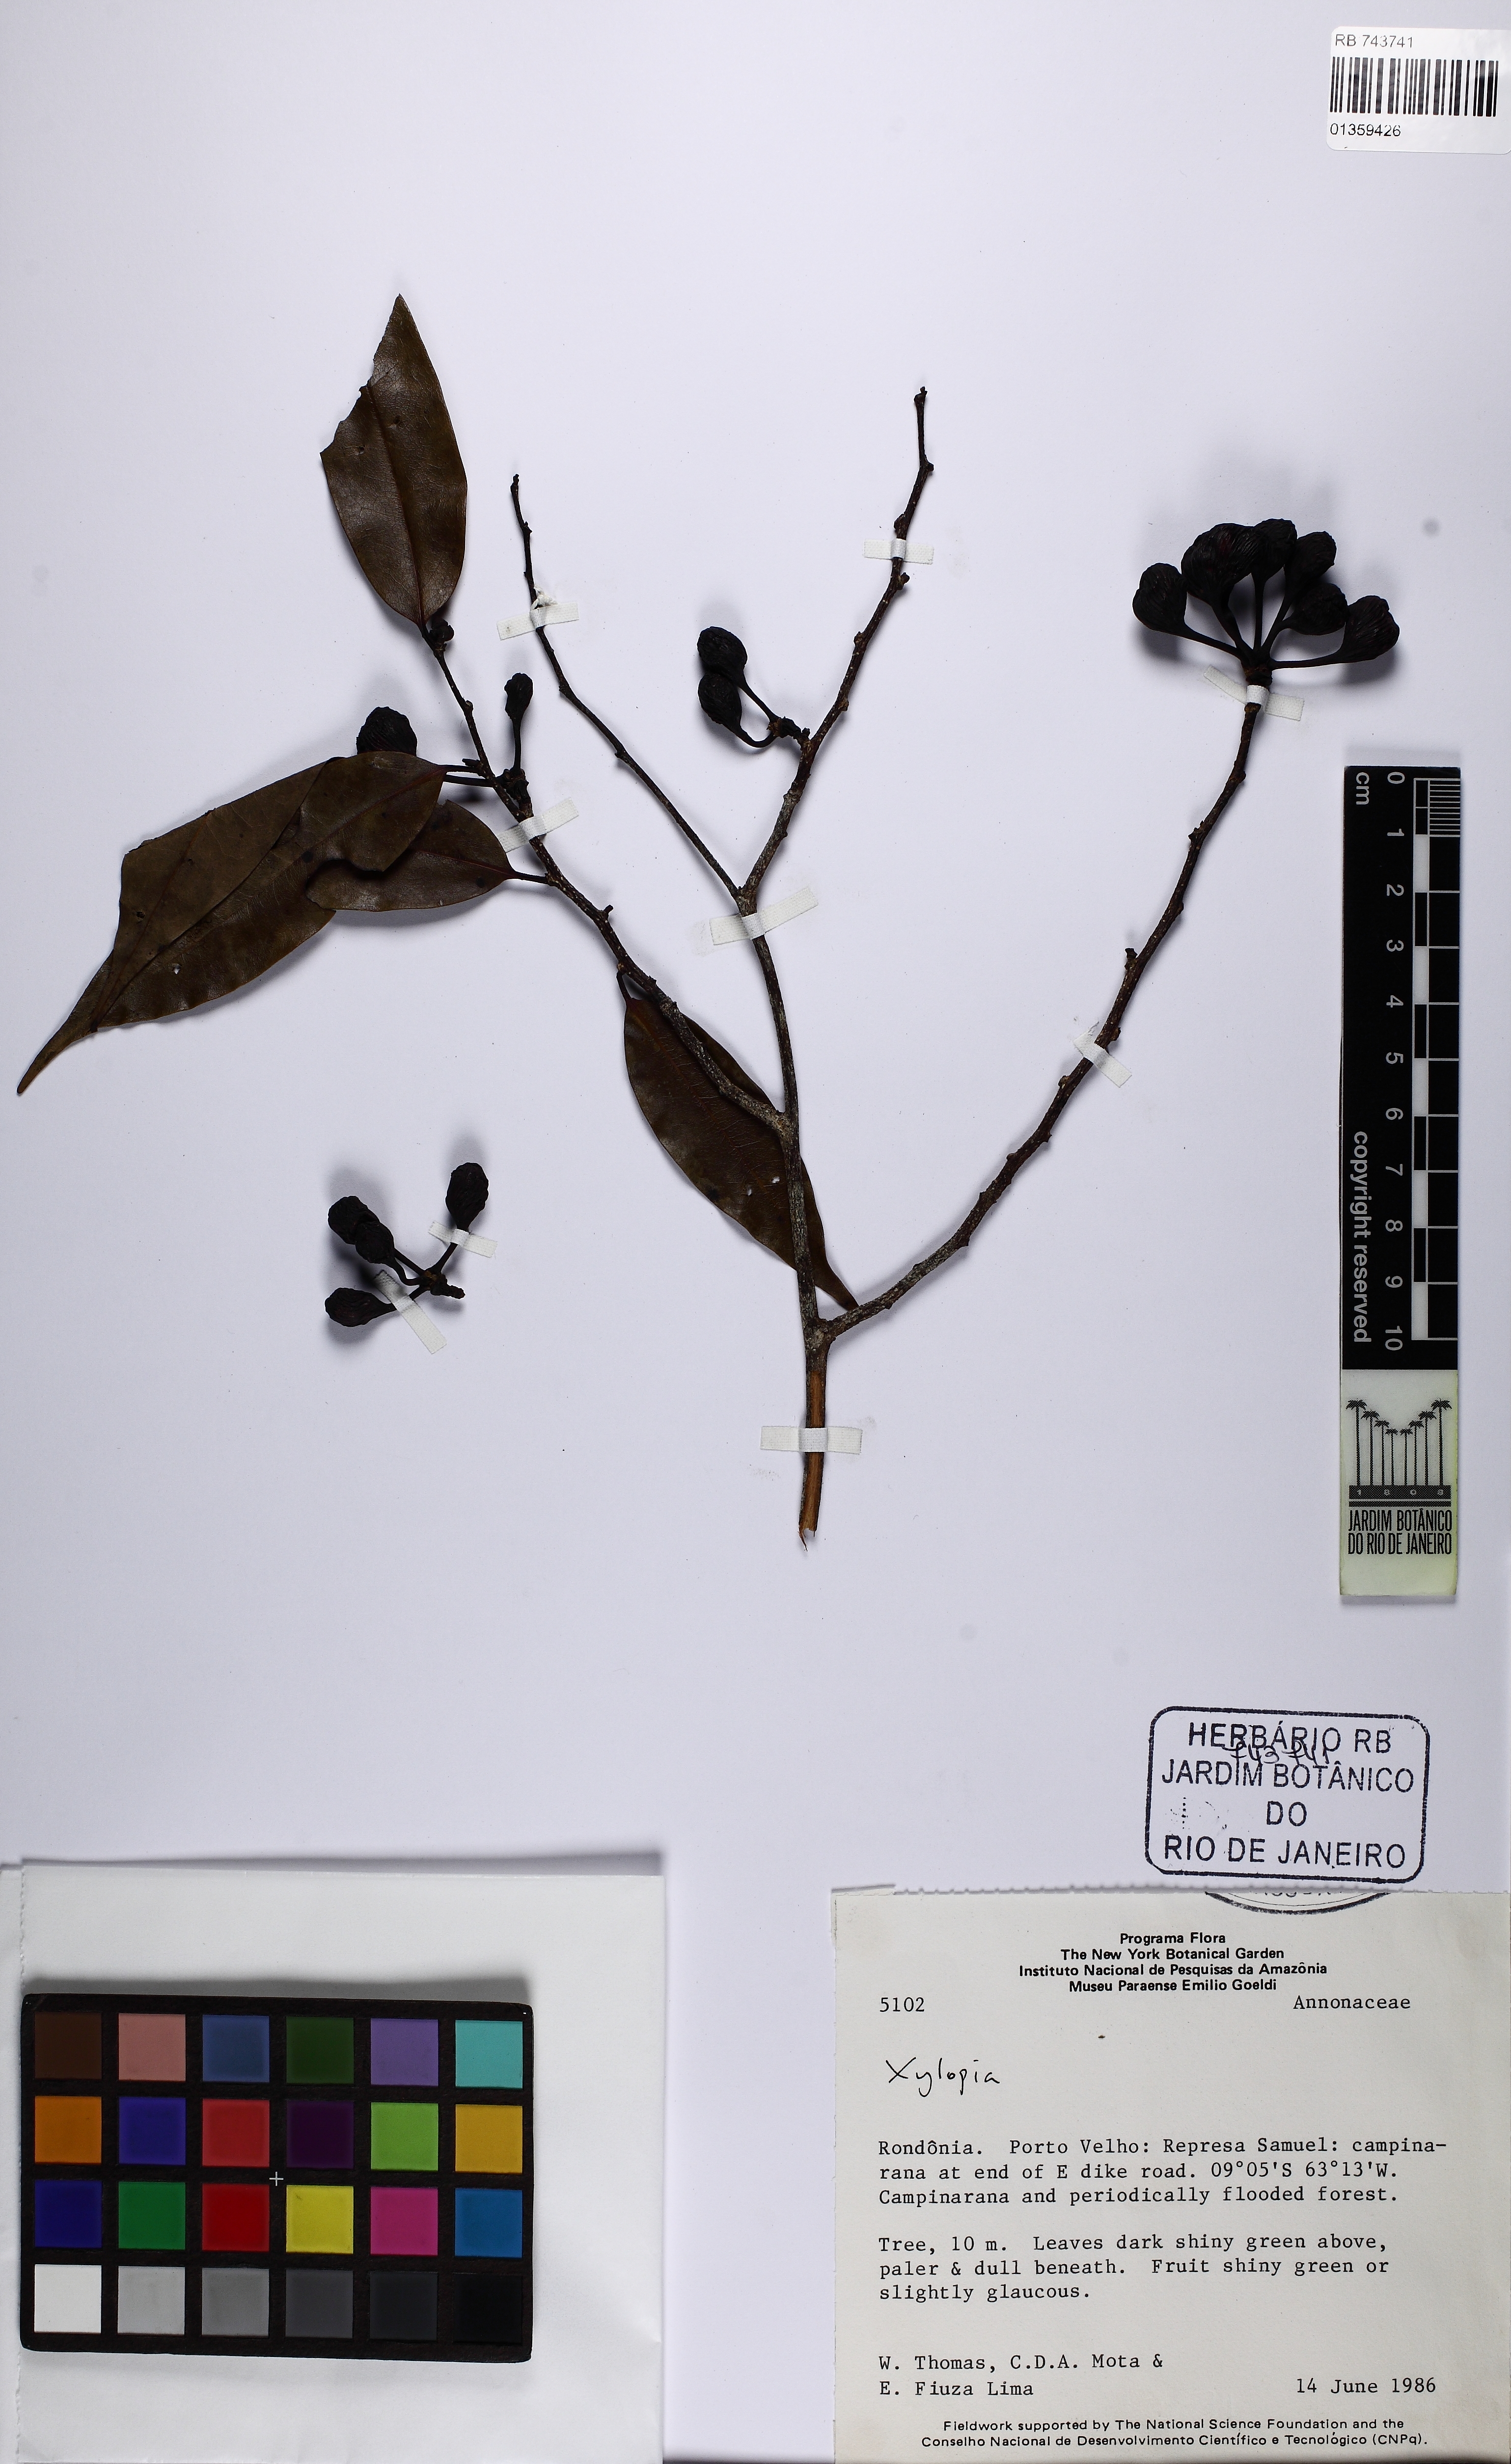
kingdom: Plantae
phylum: Tracheophyta
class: Magnoliopsida
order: Magnoliales
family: Annonaceae
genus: Xylopia
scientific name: Xylopia
